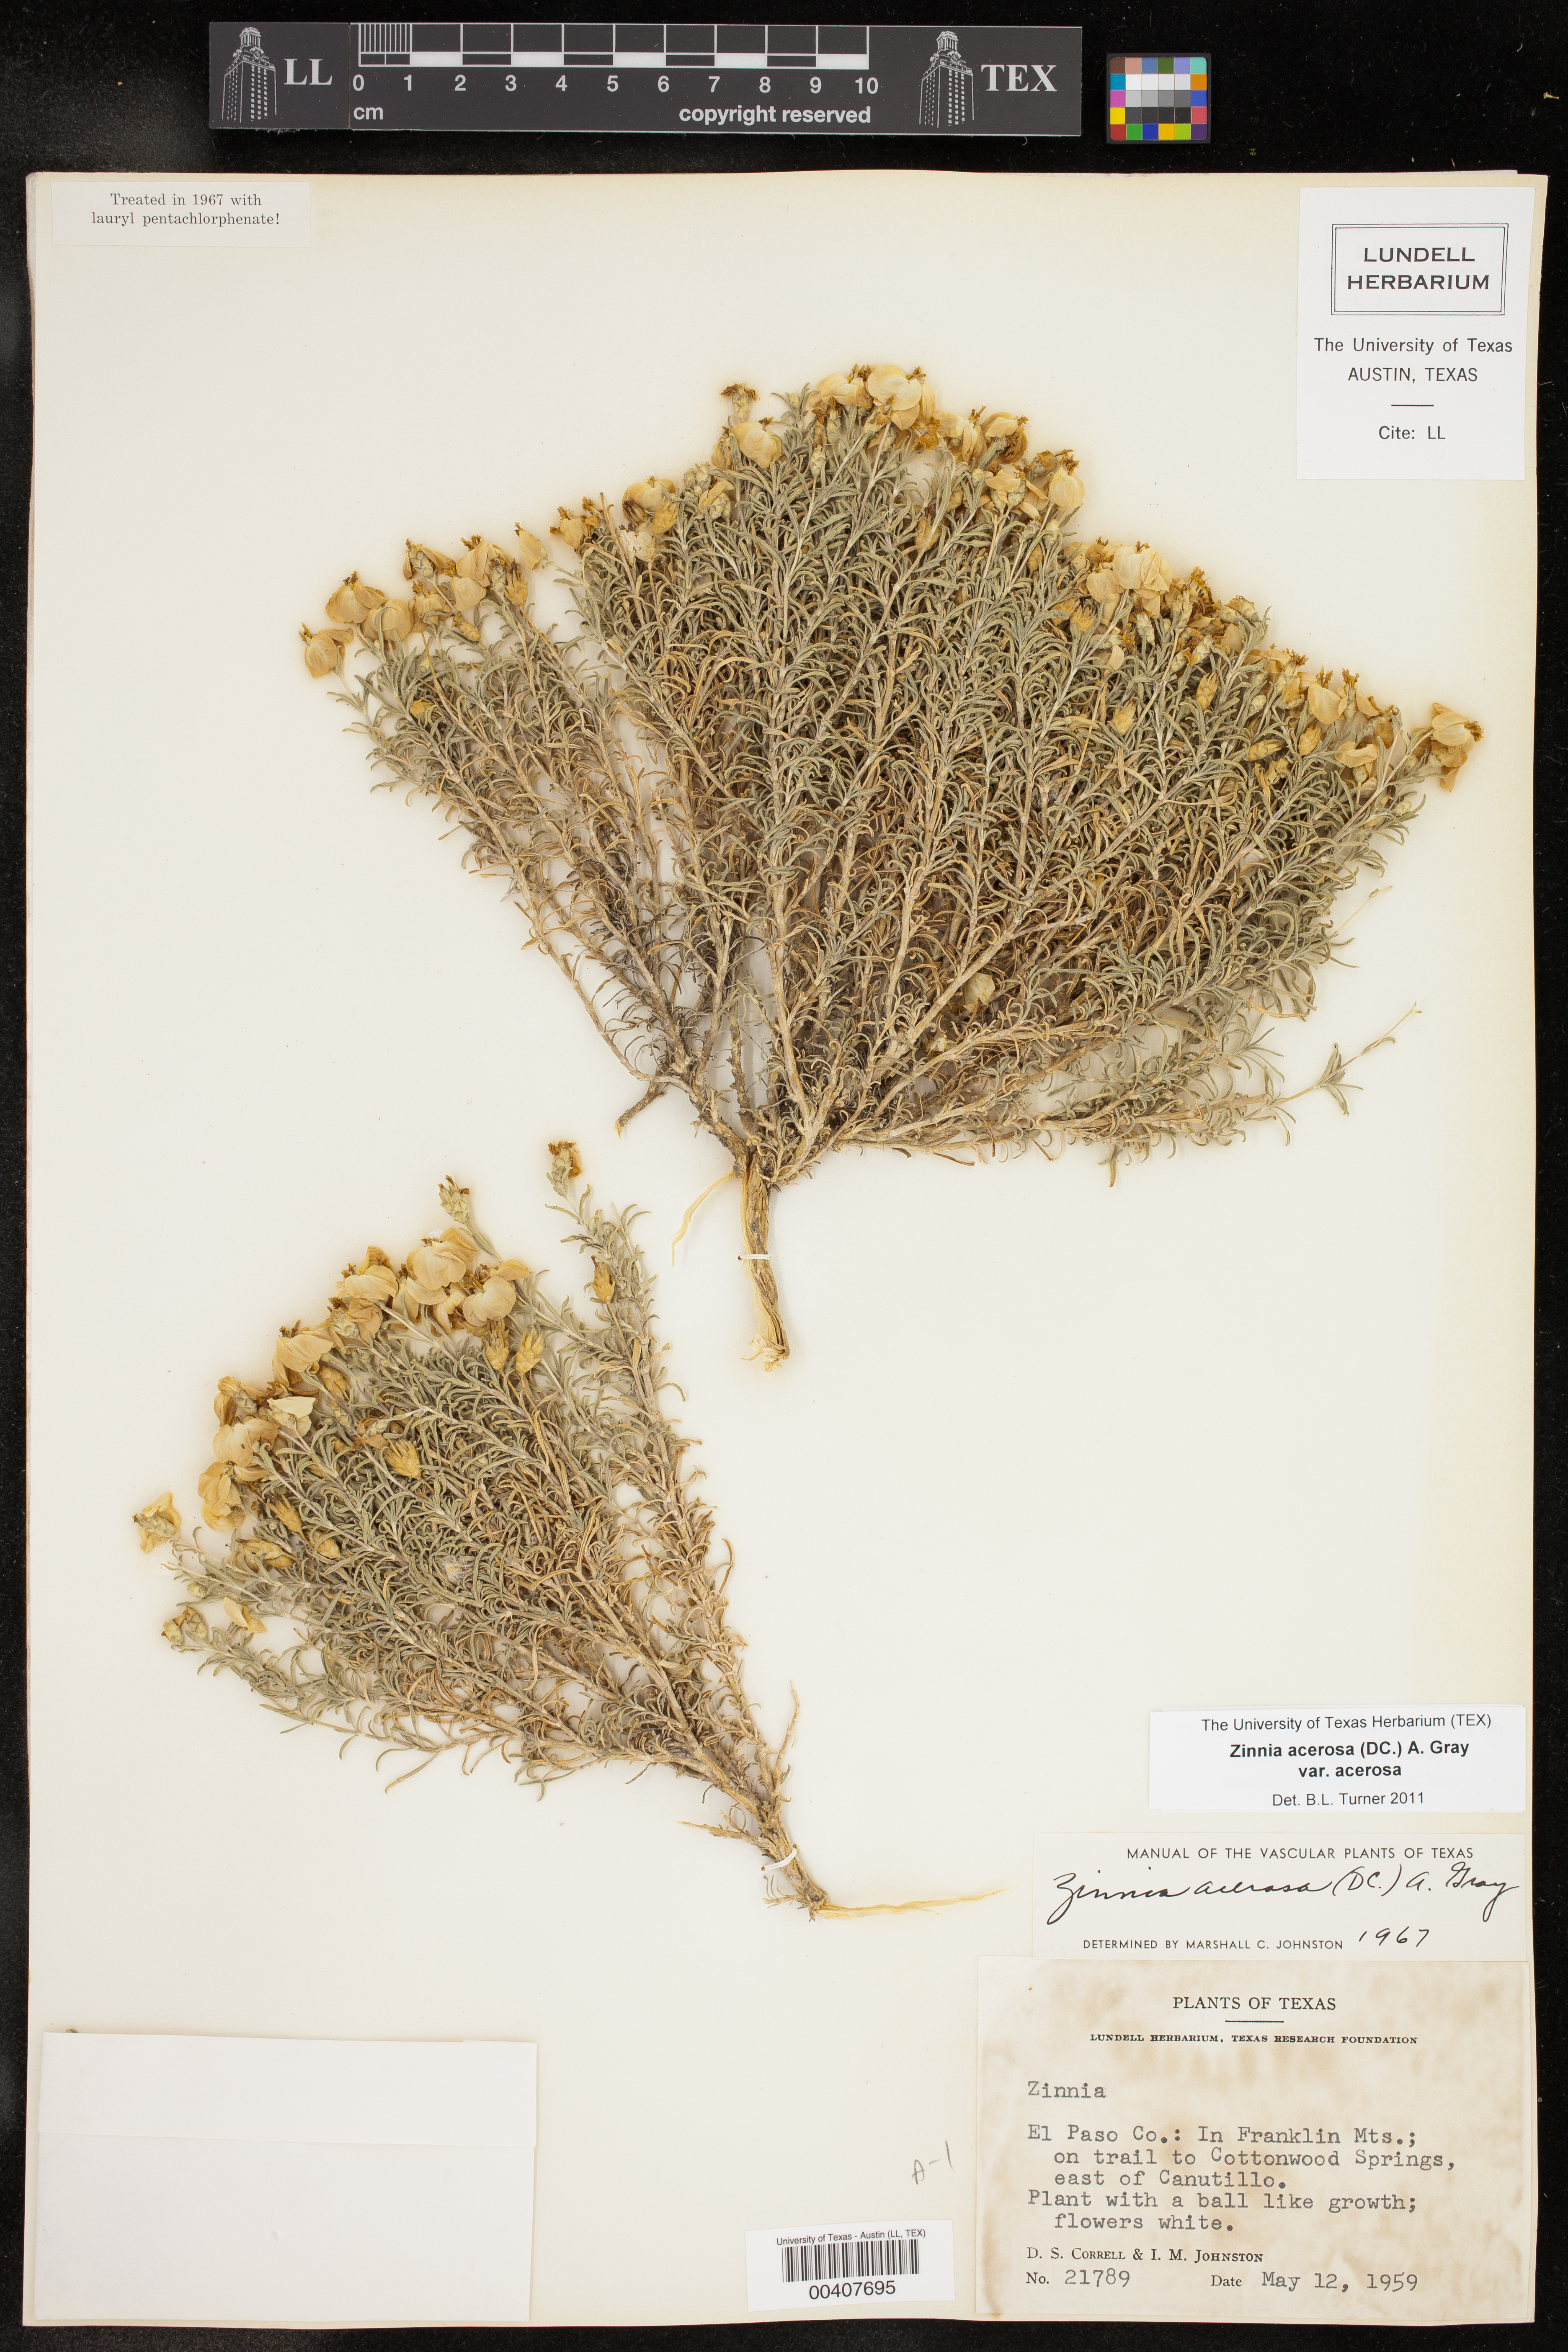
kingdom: Plantae
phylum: Tracheophyta
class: Magnoliopsida
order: Asterales
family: Asteraceae
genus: Zinnia
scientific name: Zinnia acerosa
